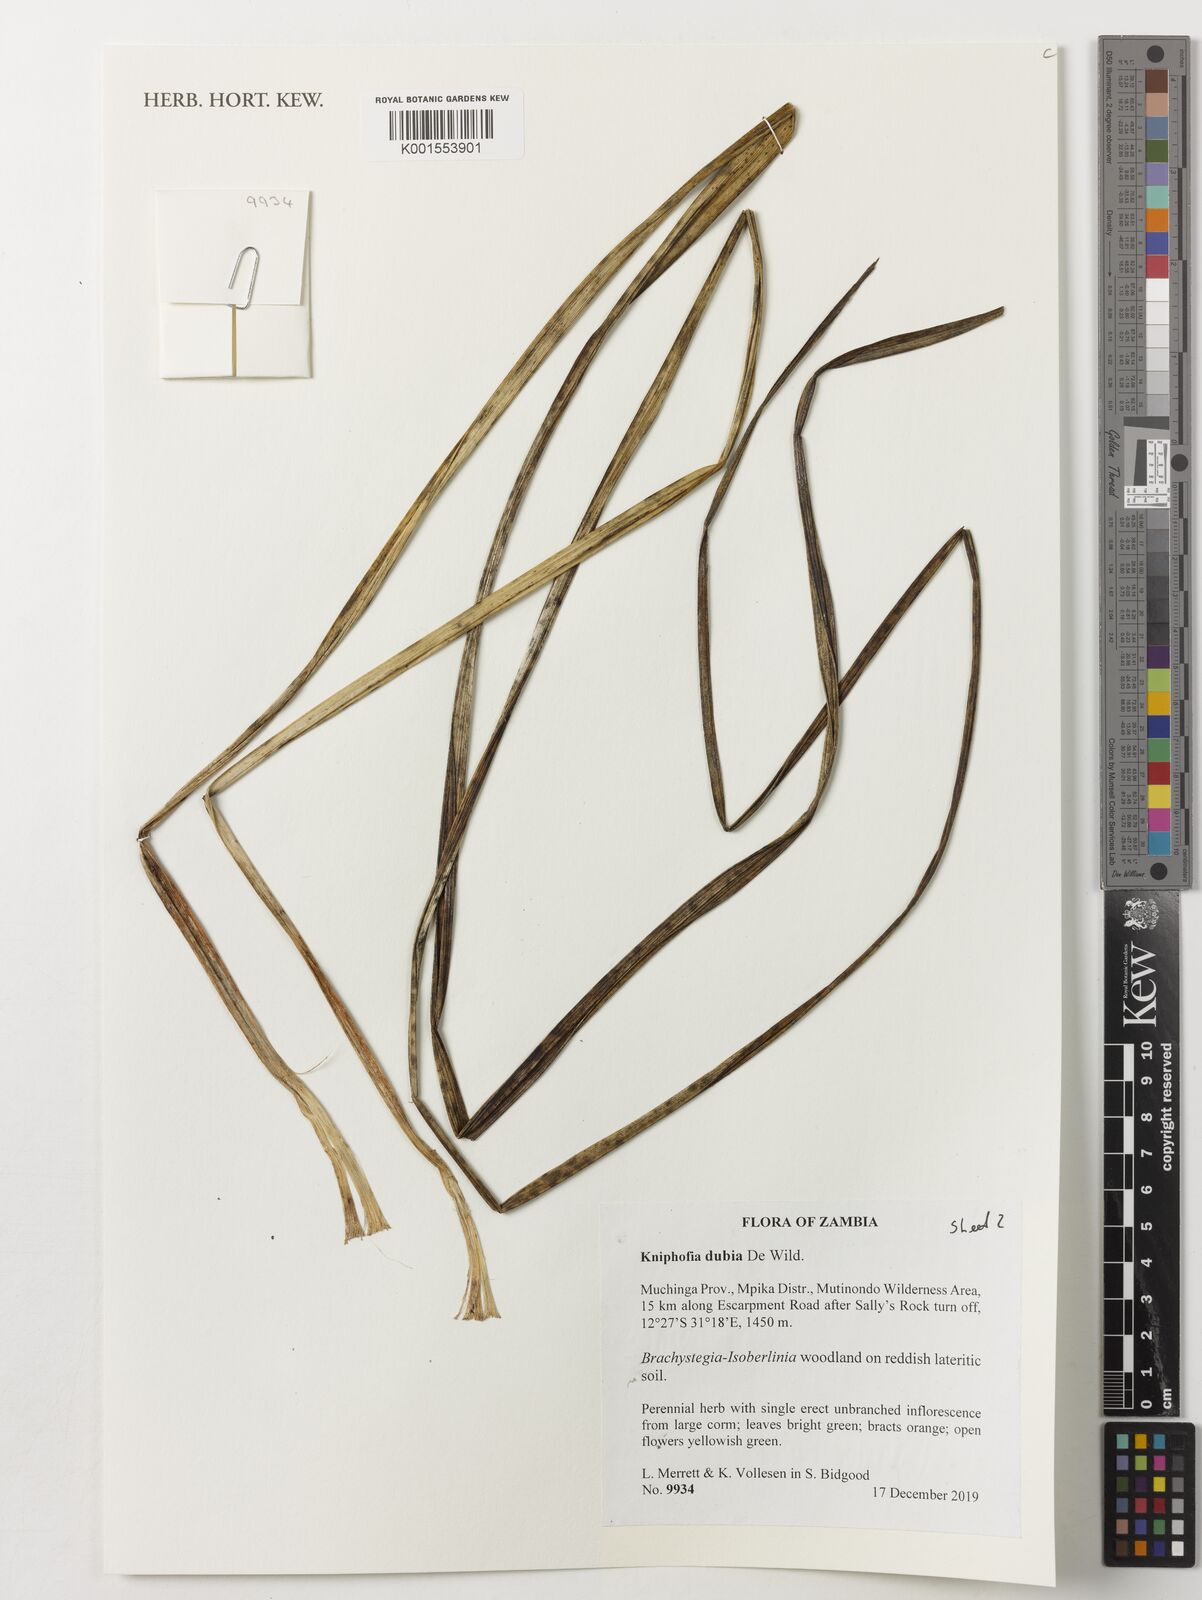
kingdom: Plantae
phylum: Tracheophyta
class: Liliopsida
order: Asparagales
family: Asphodelaceae
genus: Kniphofia
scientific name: Kniphofia dubia
